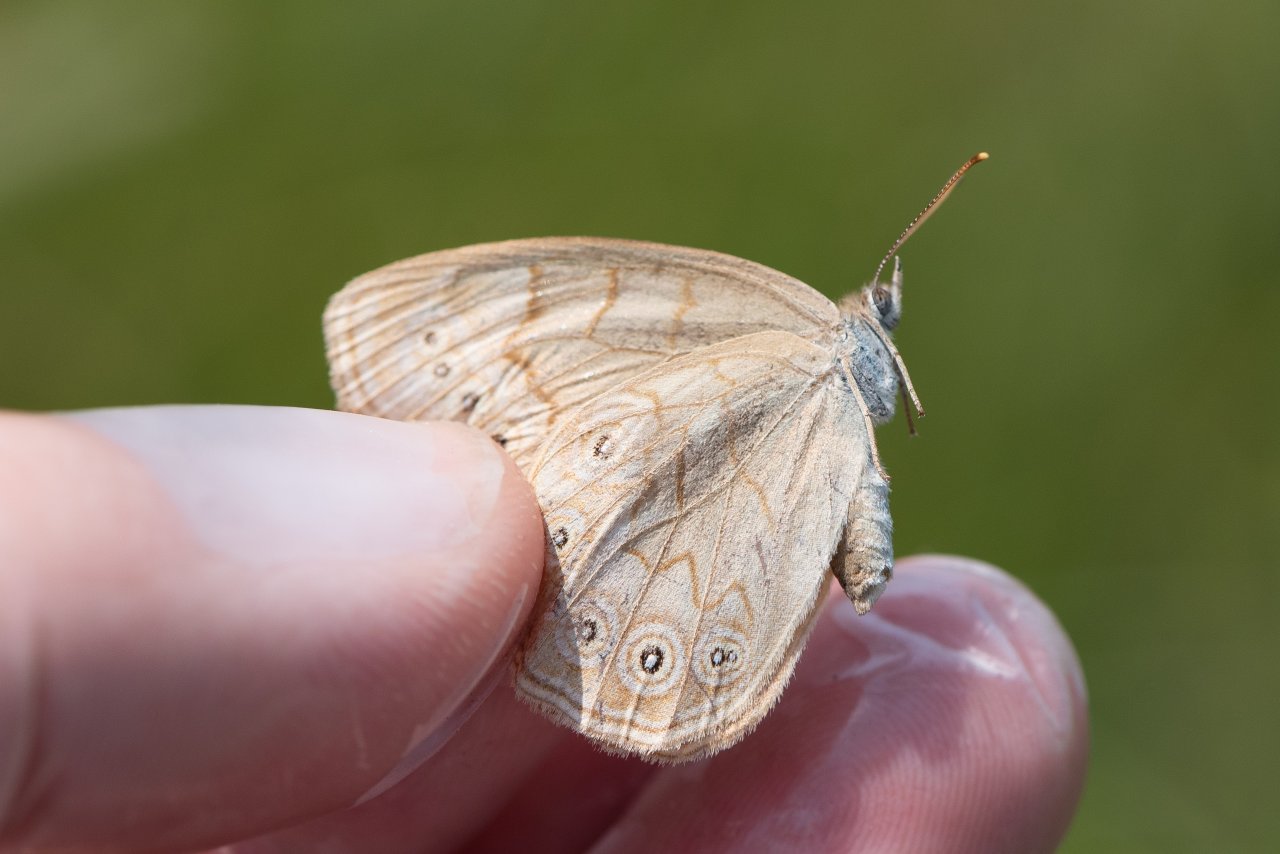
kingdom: Animalia
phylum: Arthropoda
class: Insecta
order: Lepidoptera
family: Nymphalidae
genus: Lethe
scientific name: Lethe eurydice
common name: Eyed Brown
